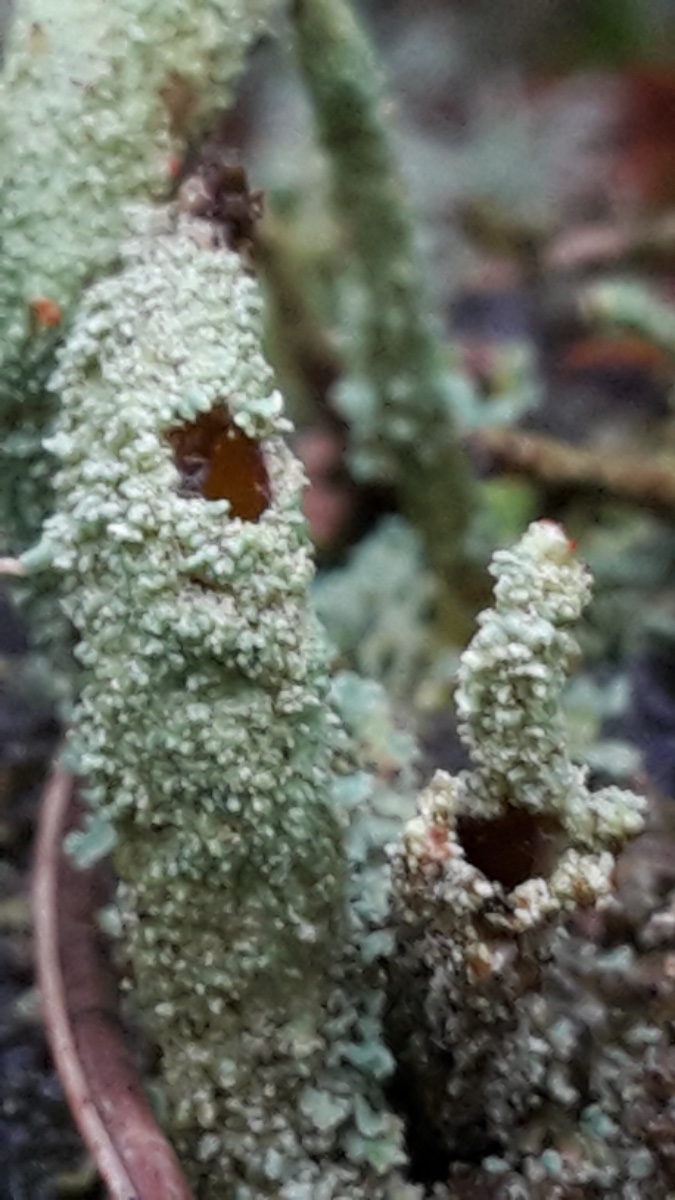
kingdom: Fungi
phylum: Ascomycota
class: Lecanoromycetes
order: Lecanorales
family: Cladoniaceae
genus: Cladonia
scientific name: Cladonia
